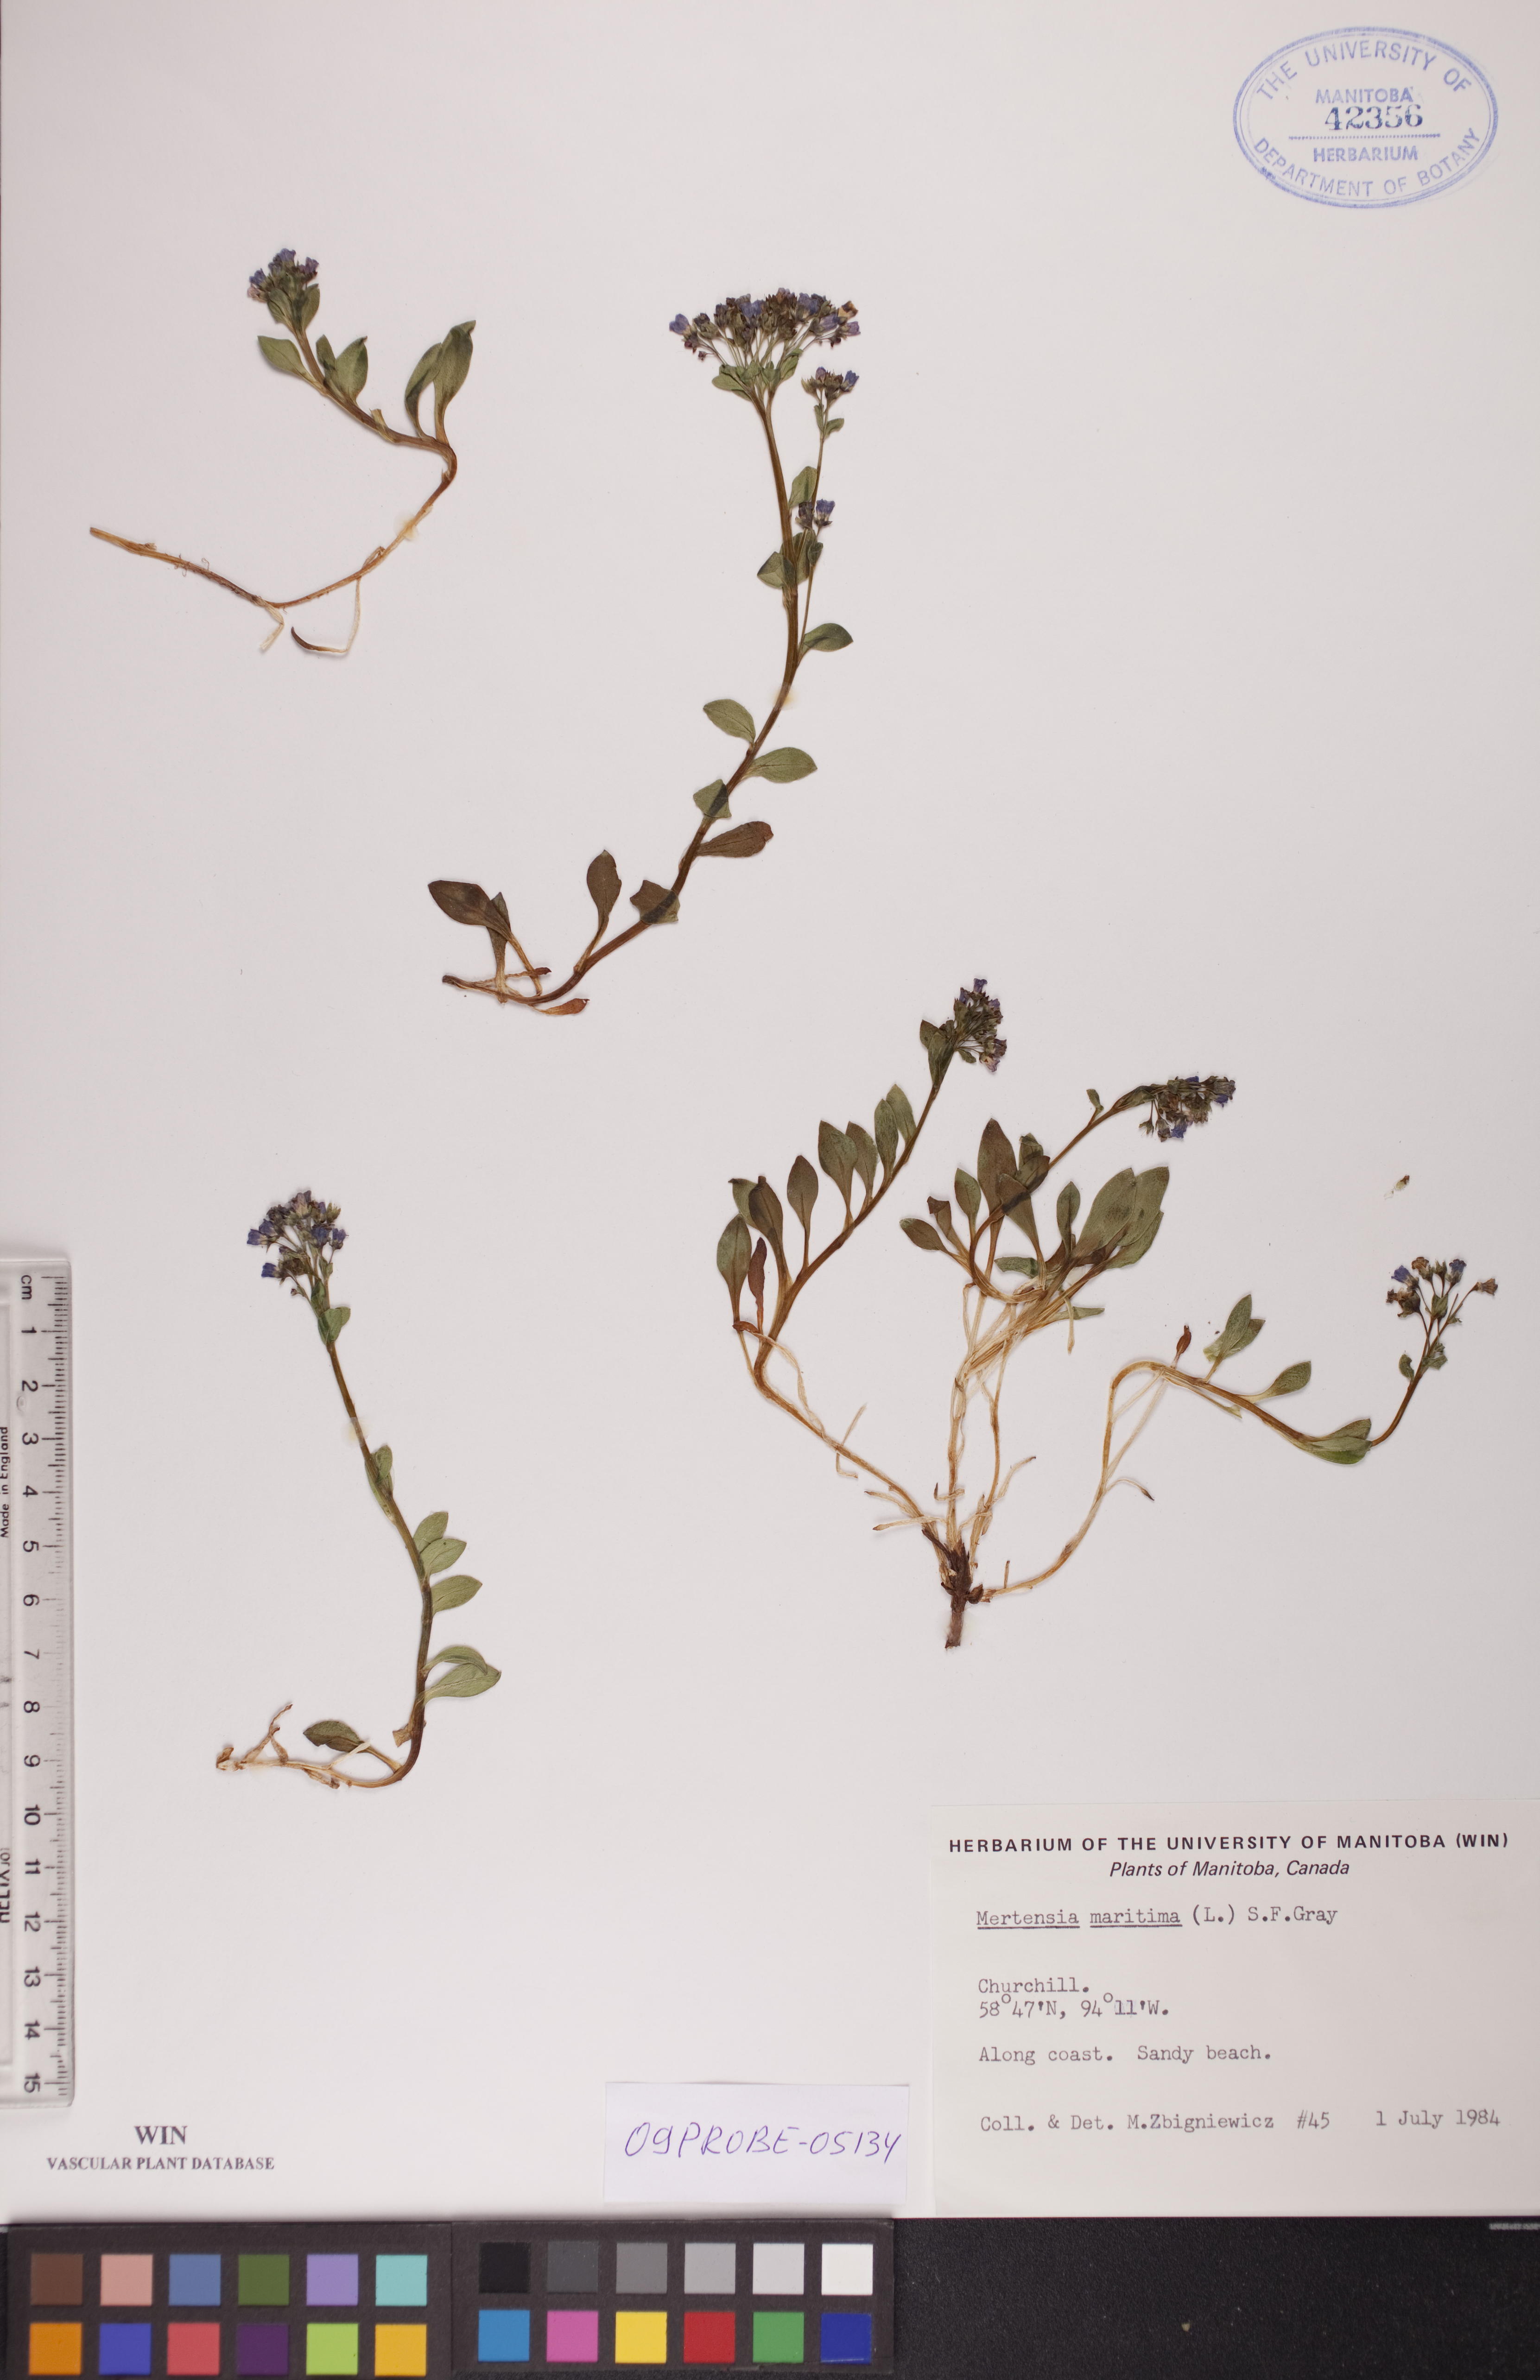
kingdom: Plantae
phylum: Tracheophyta
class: Magnoliopsida
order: Boraginales
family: Boraginaceae
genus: Mertensia
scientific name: Mertensia maritima
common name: Oysterplant
